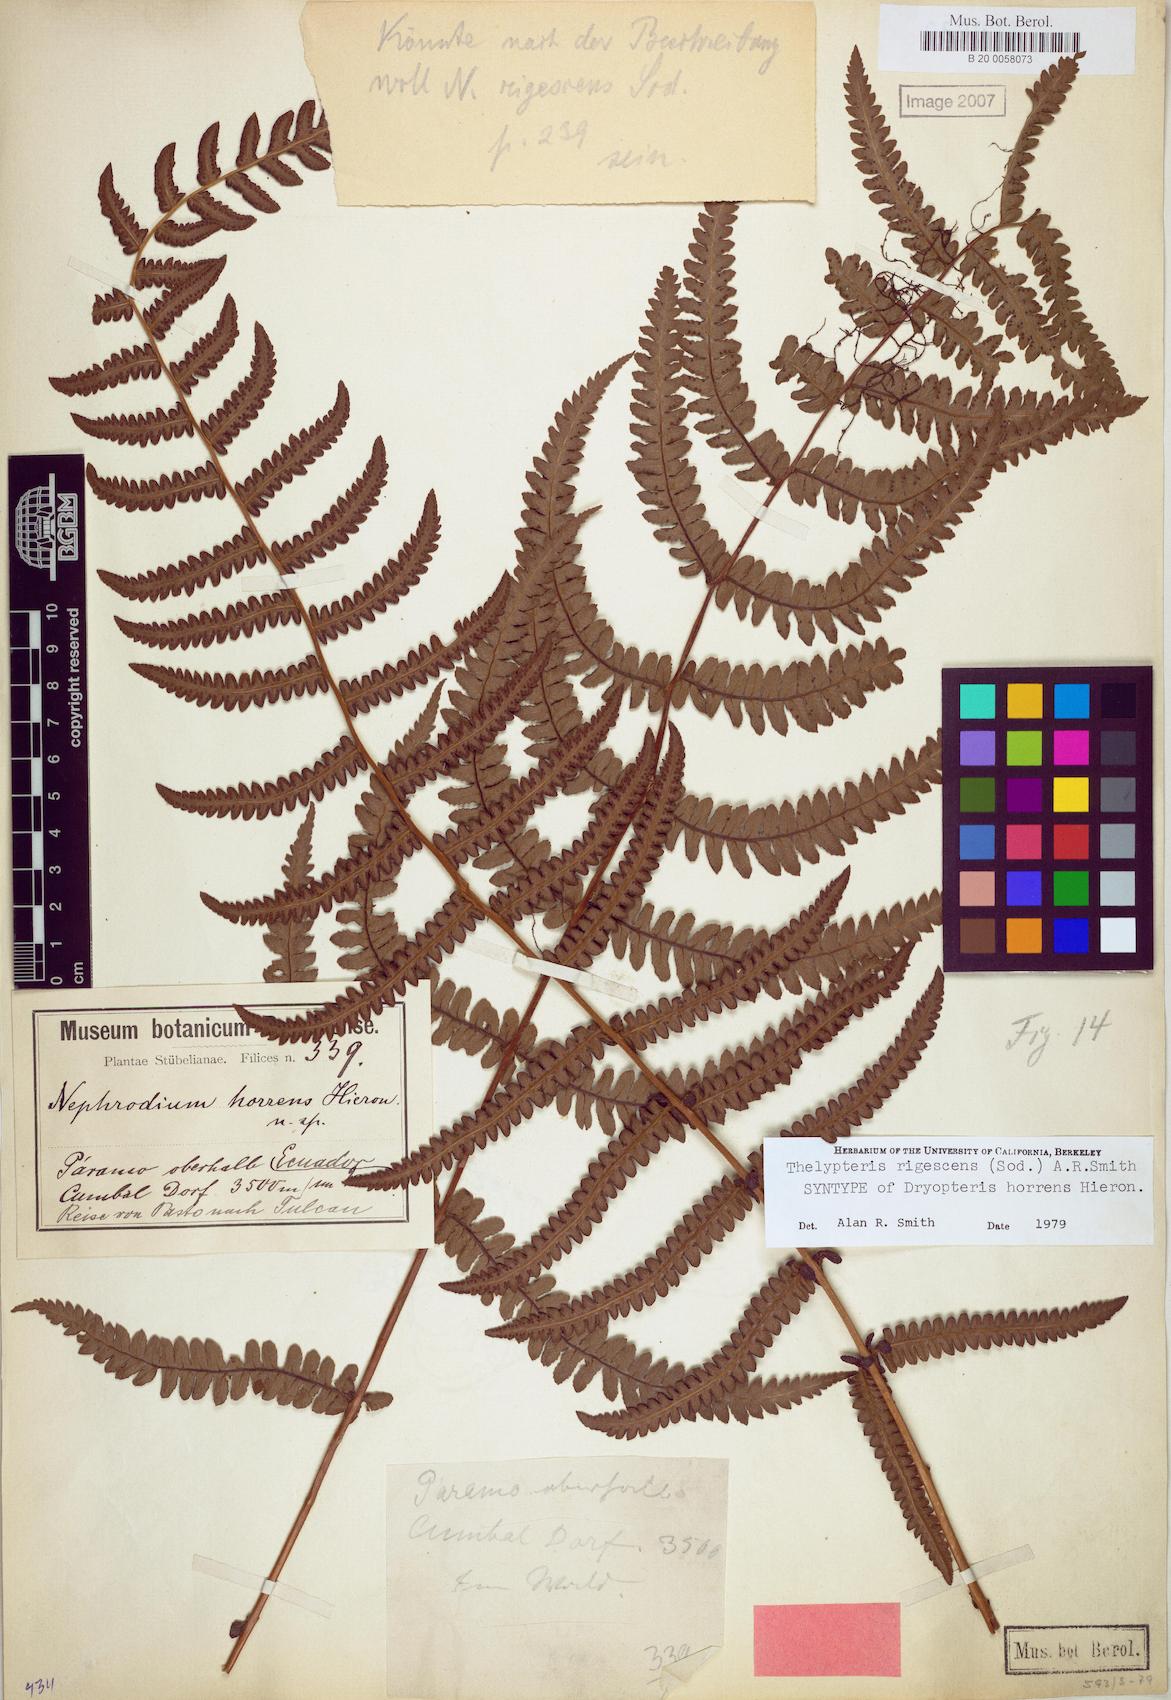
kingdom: Plantae
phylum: Tracheophyta
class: Polypodiopsida
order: Polypodiales
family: Thelypteridaceae
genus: Amauropelta
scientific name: Amauropelta rigescens
